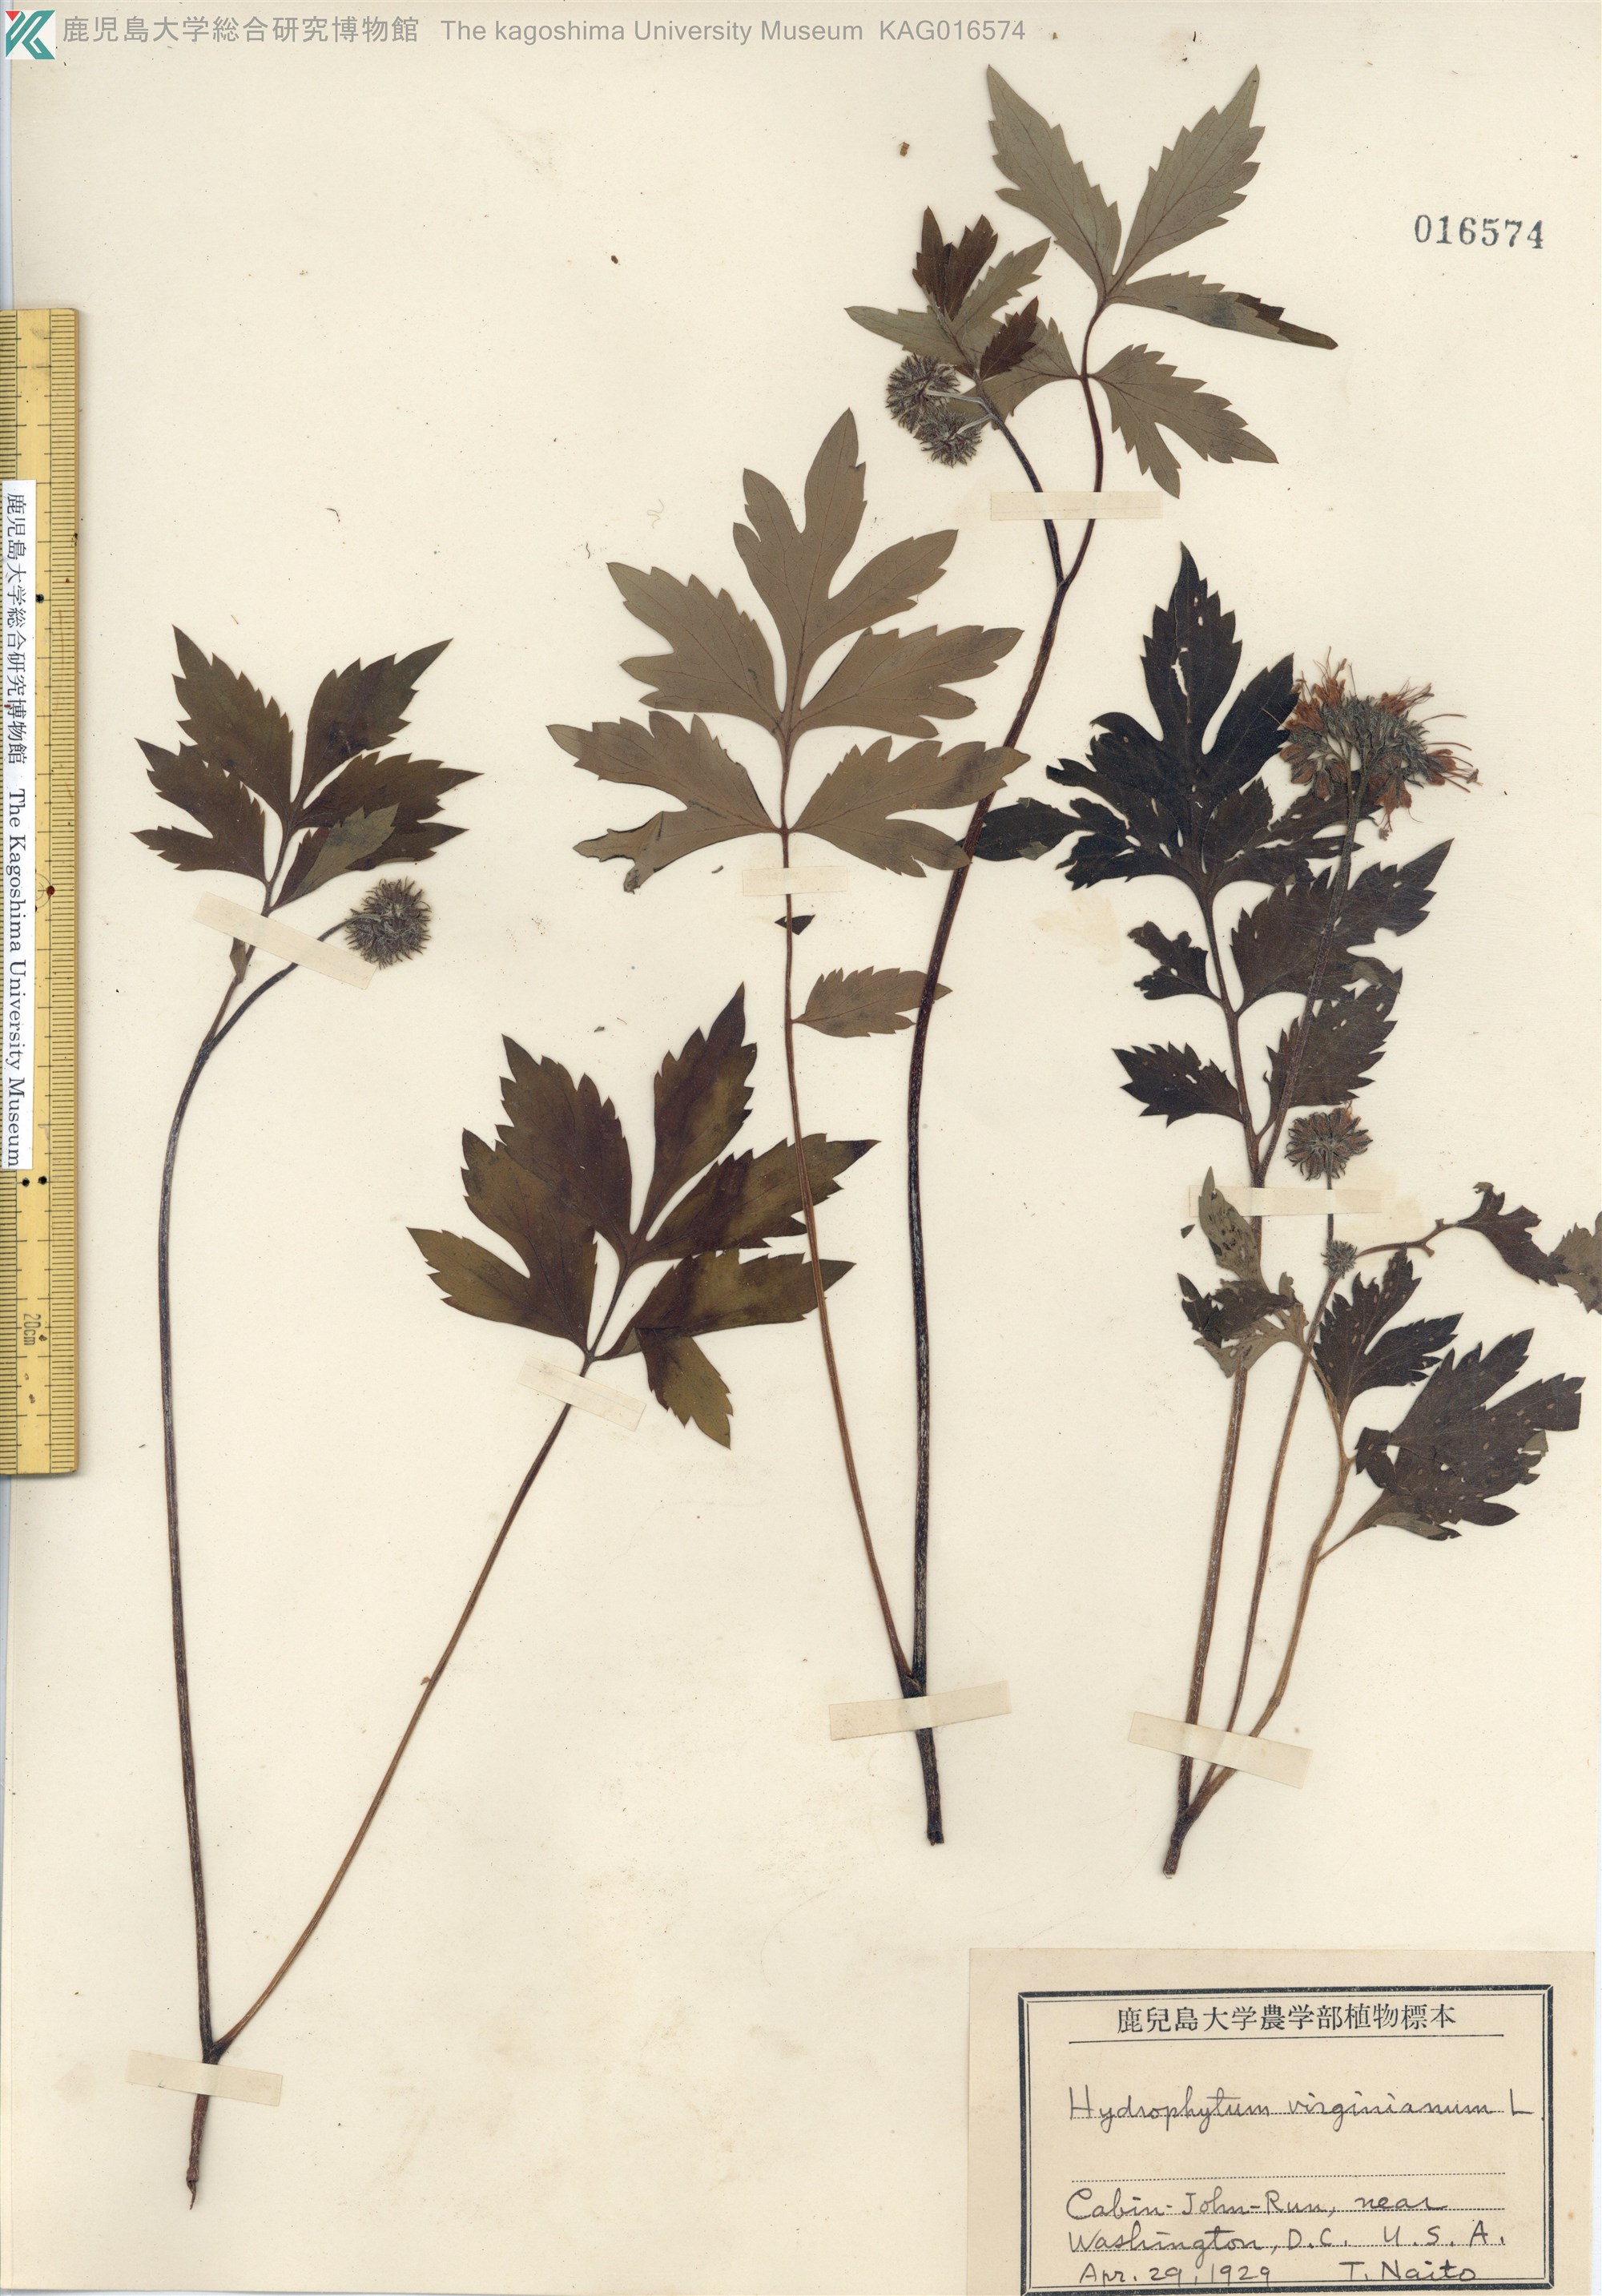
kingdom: Plantae
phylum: Tracheophyta
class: Magnoliopsida
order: Boraginales
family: Hydrophyllaceae
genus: Hydrophyllum
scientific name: Hydrophyllum virginianum
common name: Virginia waterleaf
